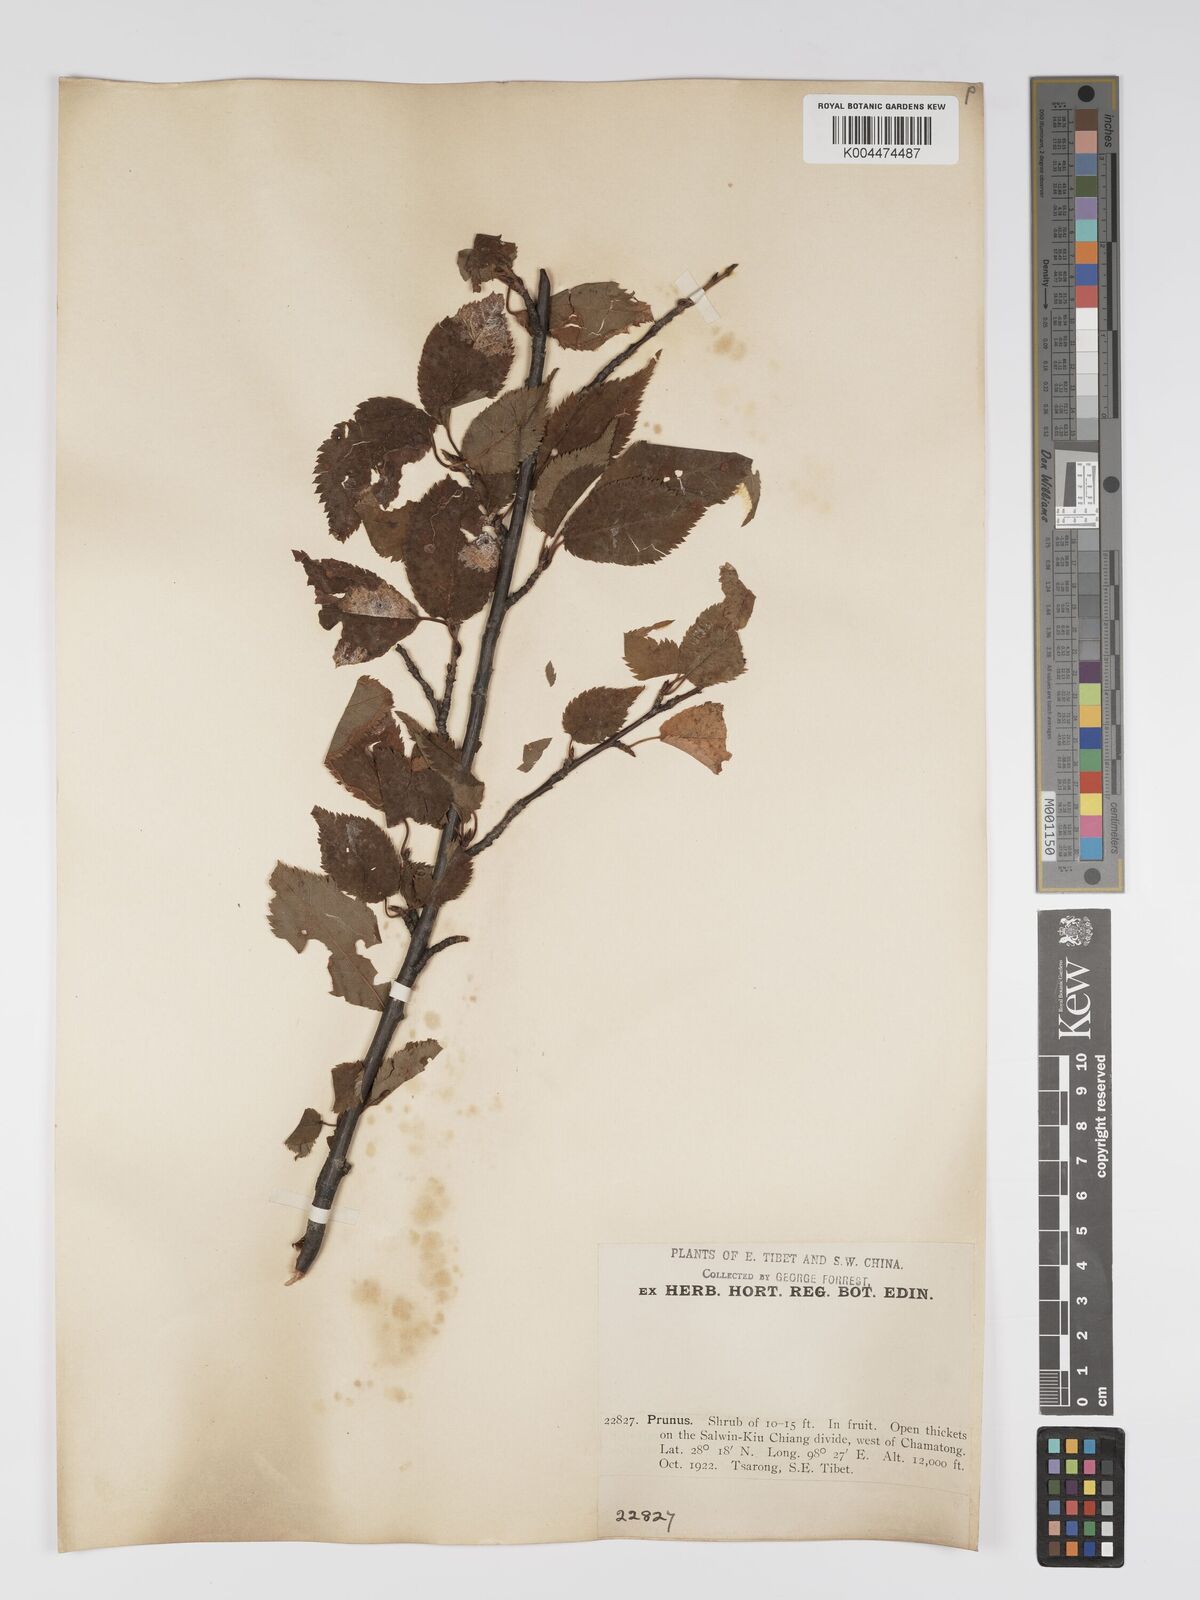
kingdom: Plantae
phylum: Tracheophyta
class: Magnoliopsida
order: Rosales
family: Rosaceae
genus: Prunus
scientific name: Prunus
